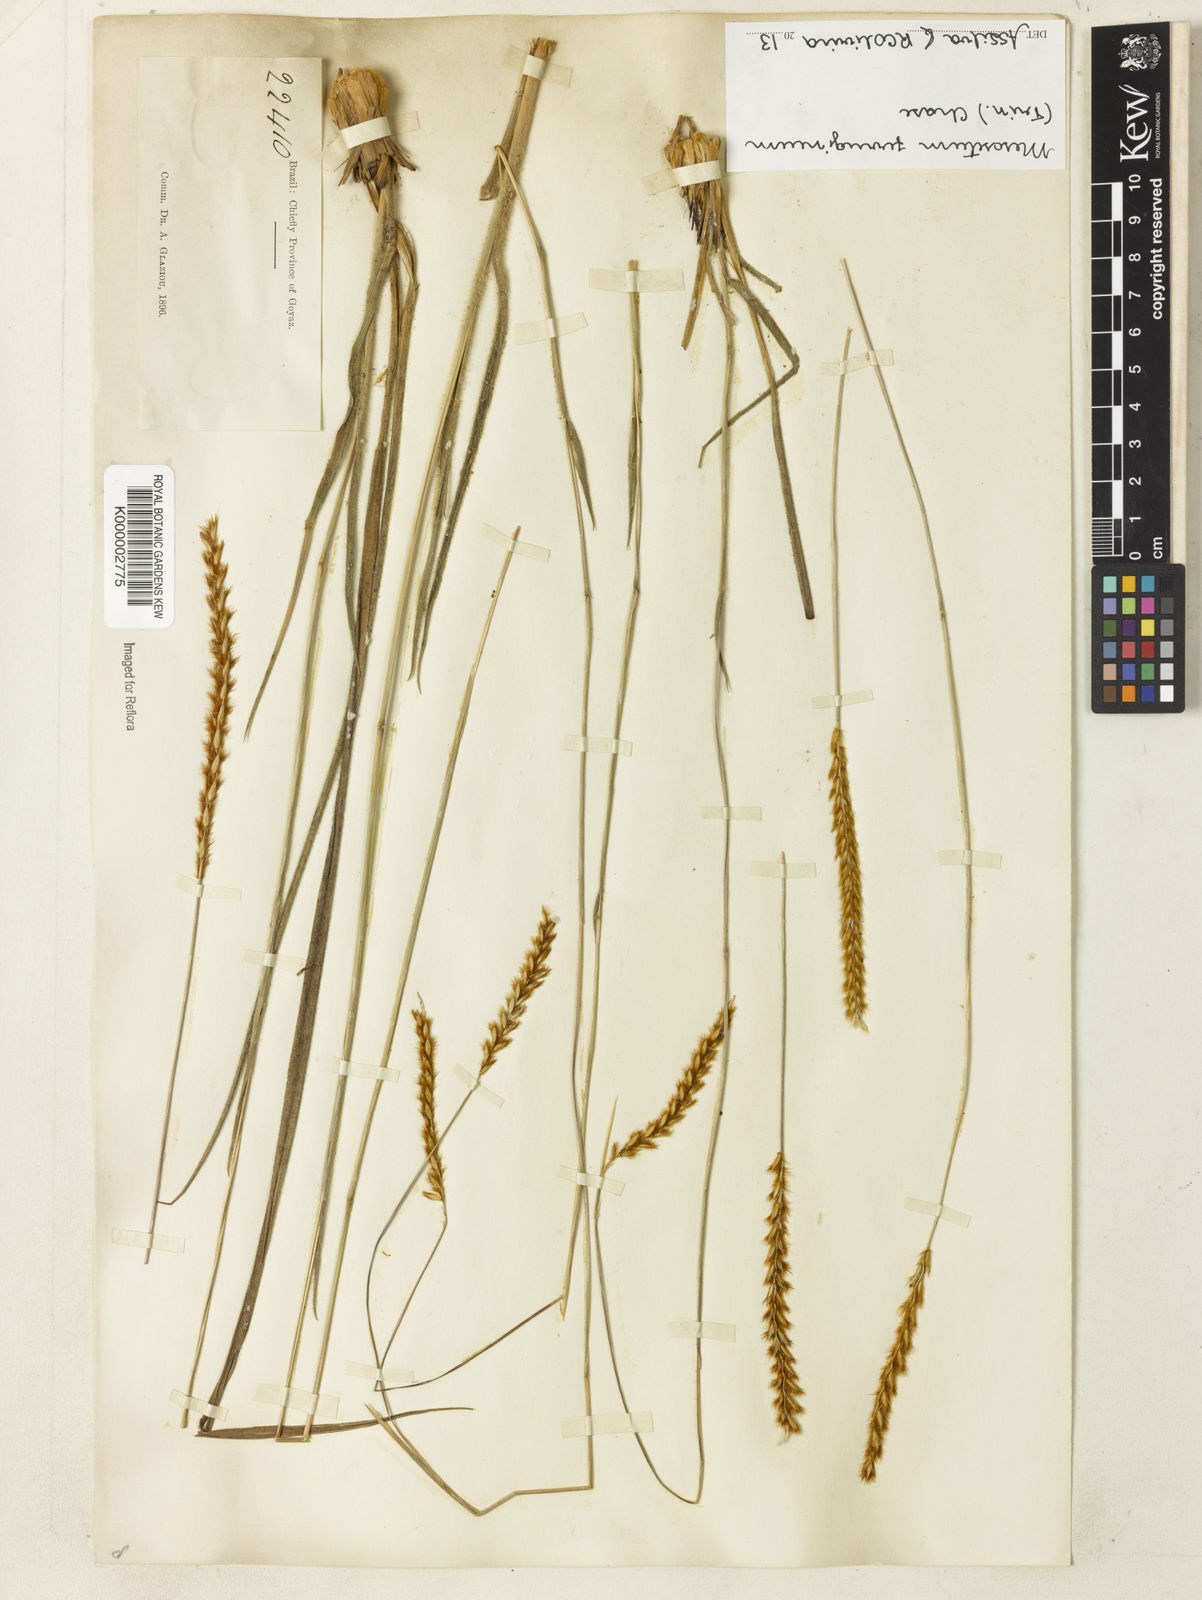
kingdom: Plantae
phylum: Tracheophyta
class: Liliopsida
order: Poales
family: Poaceae
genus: Mesosetum
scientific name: Mesosetum ferrugineum
